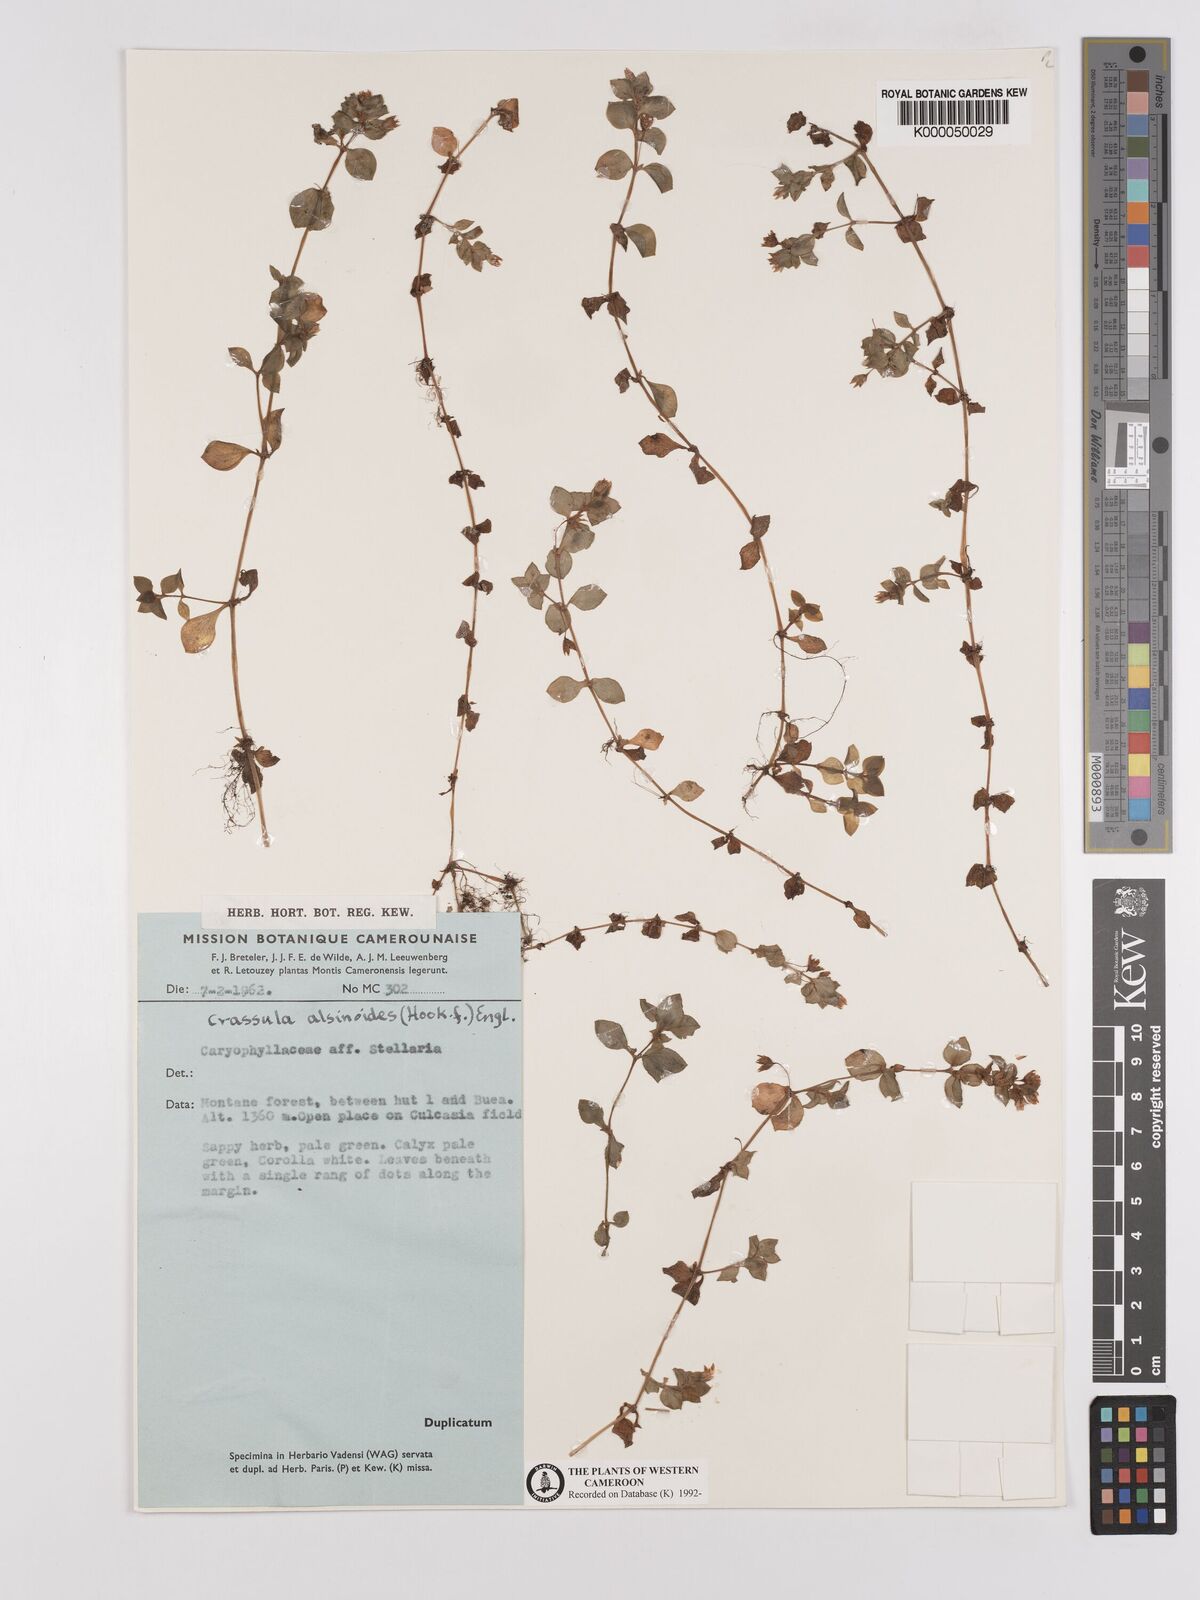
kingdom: Plantae
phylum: Tracheophyta
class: Magnoliopsida
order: Saxifragales
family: Crassulaceae
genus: Crassula
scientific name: Crassula alsinoides
